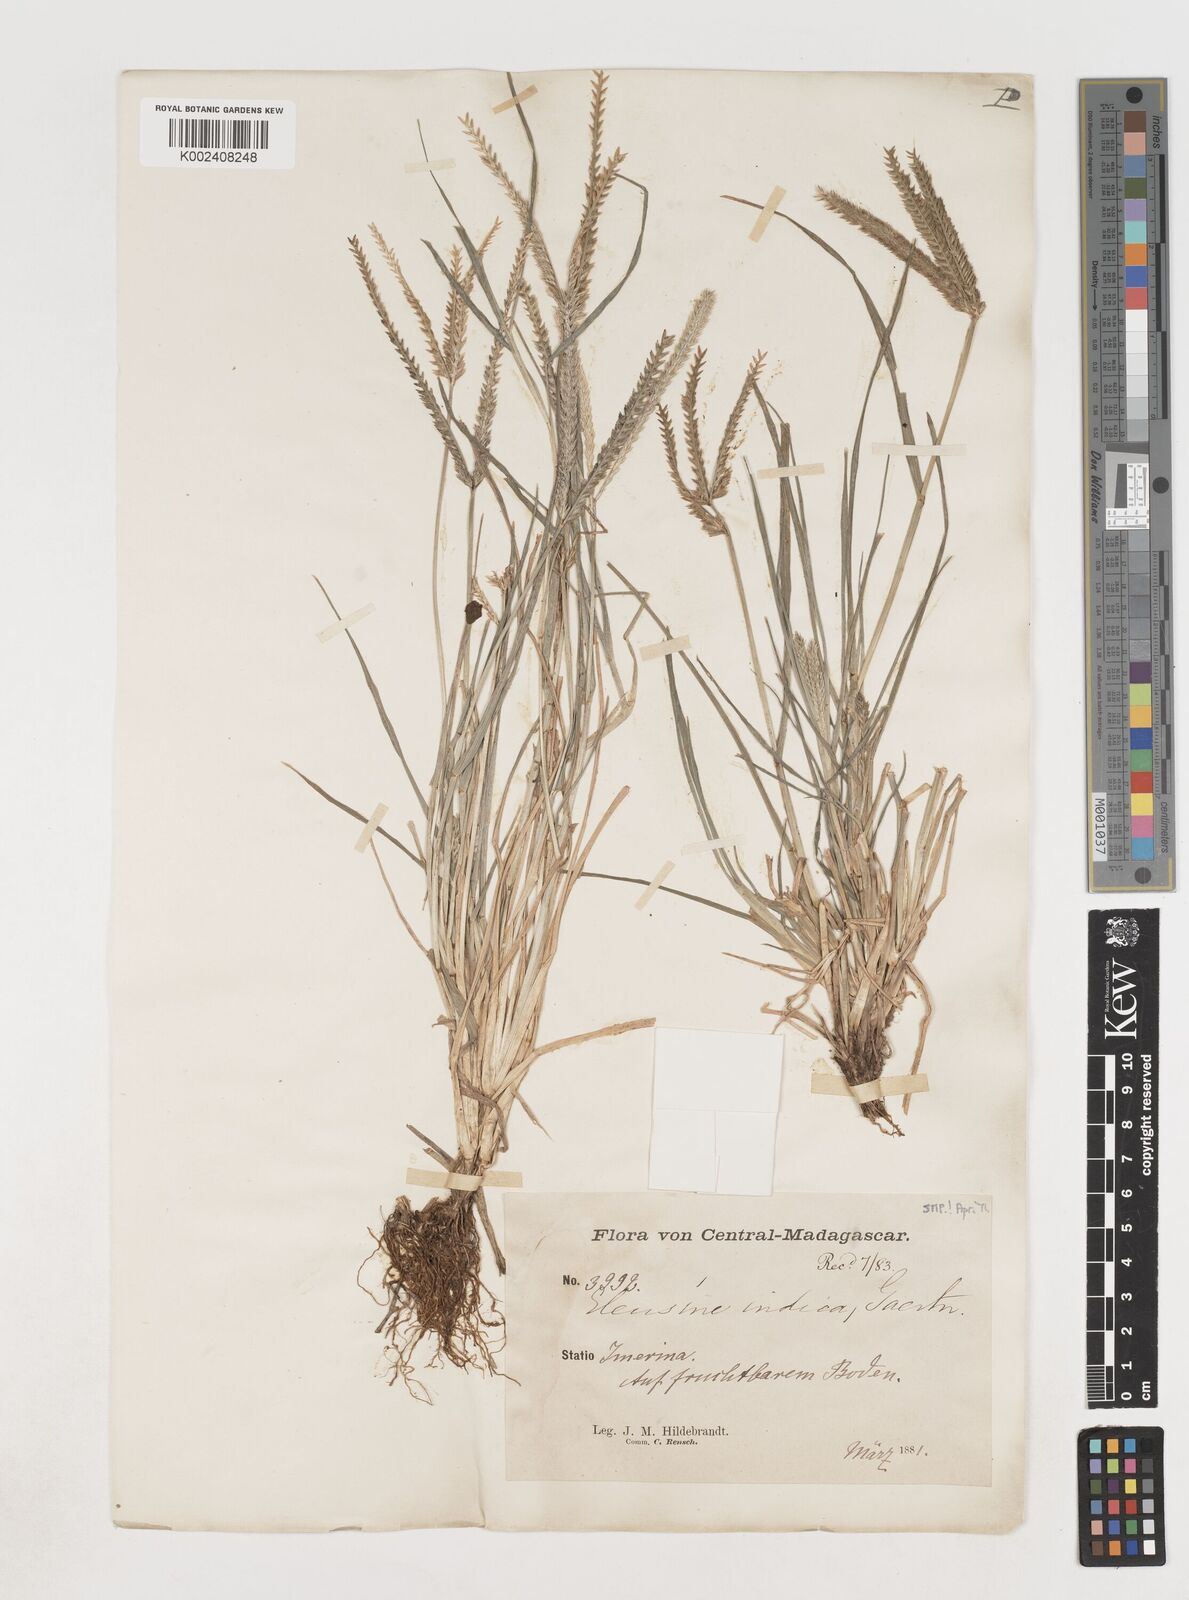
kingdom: Plantae
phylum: Tracheophyta
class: Liliopsida
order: Poales
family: Poaceae
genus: Eleusine
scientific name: Eleusine indica
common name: Yard-grass
